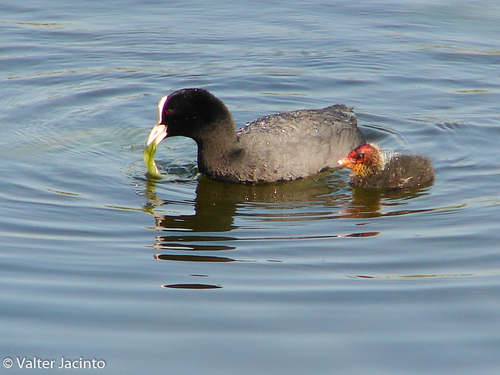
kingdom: Animalia
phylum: Chordata
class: Aves
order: Gruiformes
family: Rallidae
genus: Fulica
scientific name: Fulica atra
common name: Eurasian coot
